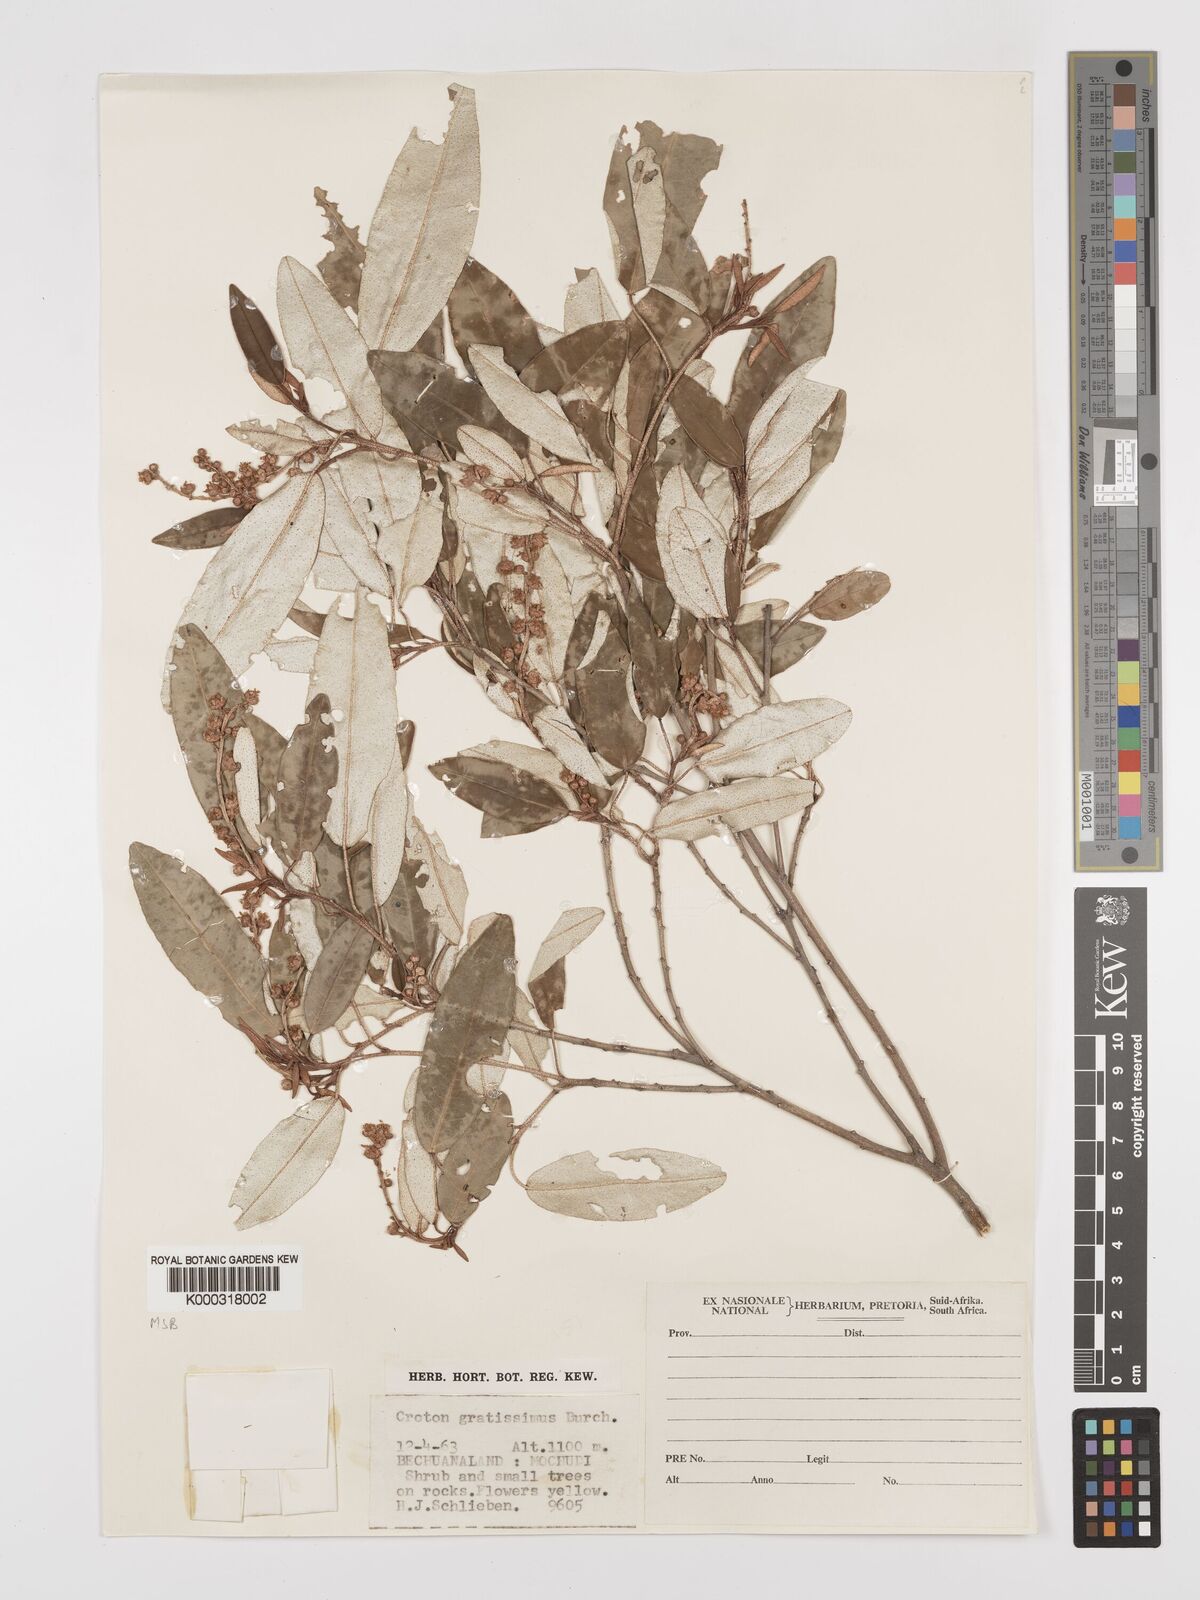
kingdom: Plantae
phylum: Tracheophyta
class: Magnoliopsida
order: Malpighiales
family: Euphorbiaceae
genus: Croton
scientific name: Croton gratissimus
